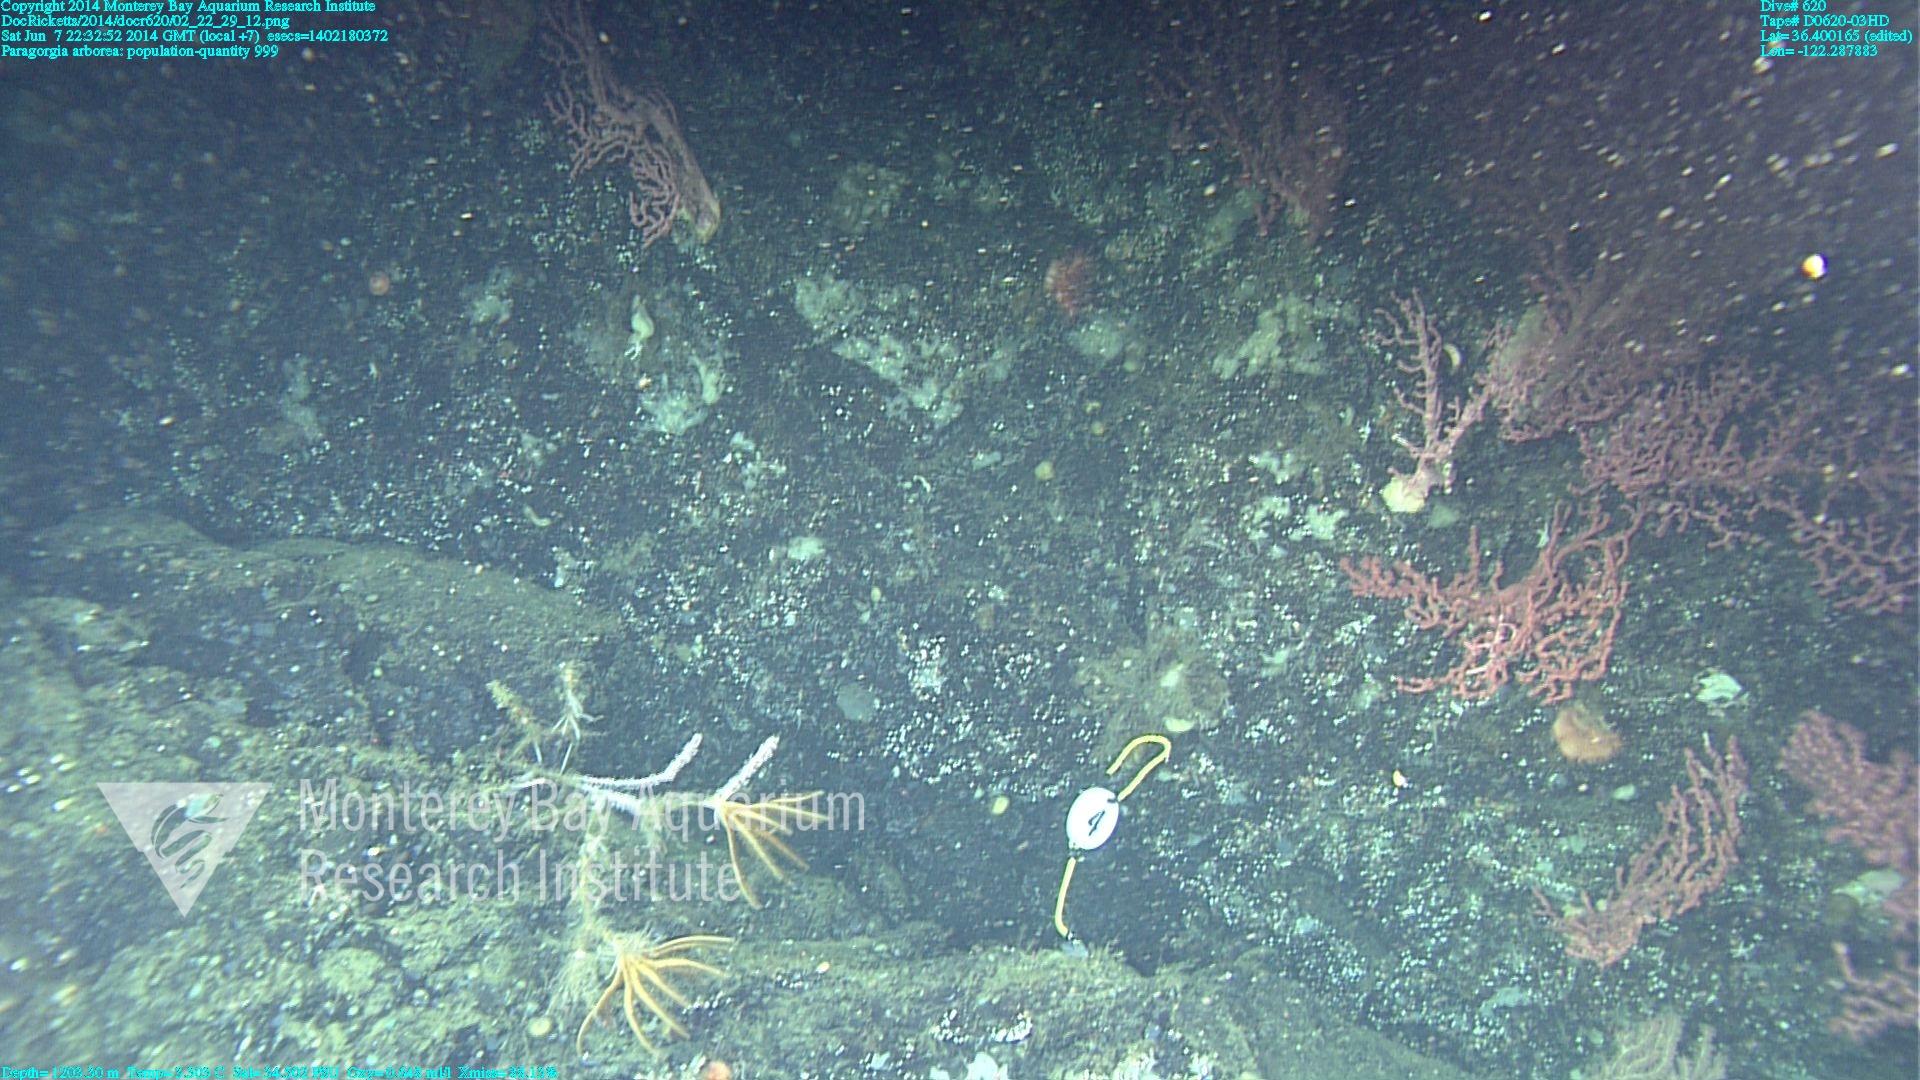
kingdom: Animalia
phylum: Cnidaria
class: Anthozoa
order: Scleralcyonacea
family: Coralliidae
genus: Paragorgia
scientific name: Paragorgia arborea
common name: Bubble gum coral
